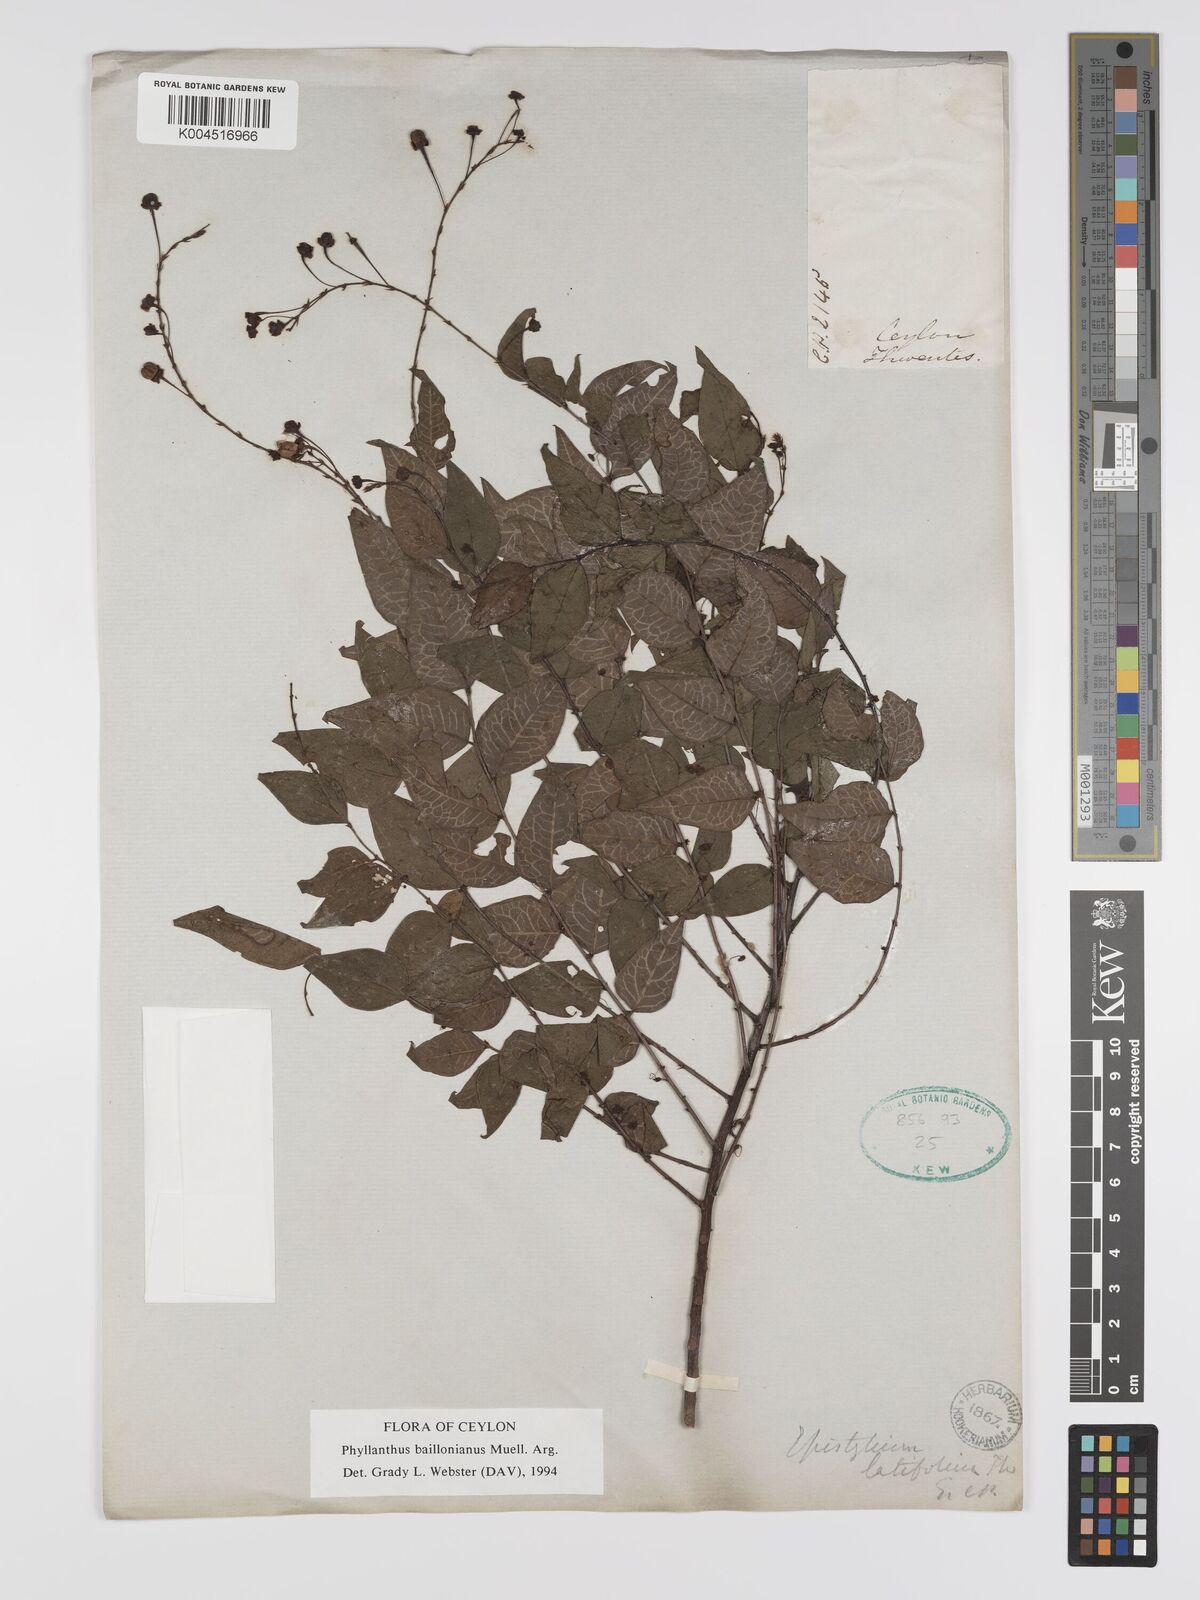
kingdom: Plantae
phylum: Tracheophyta
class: Magnoliopsida
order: Malpighiales
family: Phyllanthaceae
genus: Phyllanthus
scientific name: Phyllanthus baillonianus
